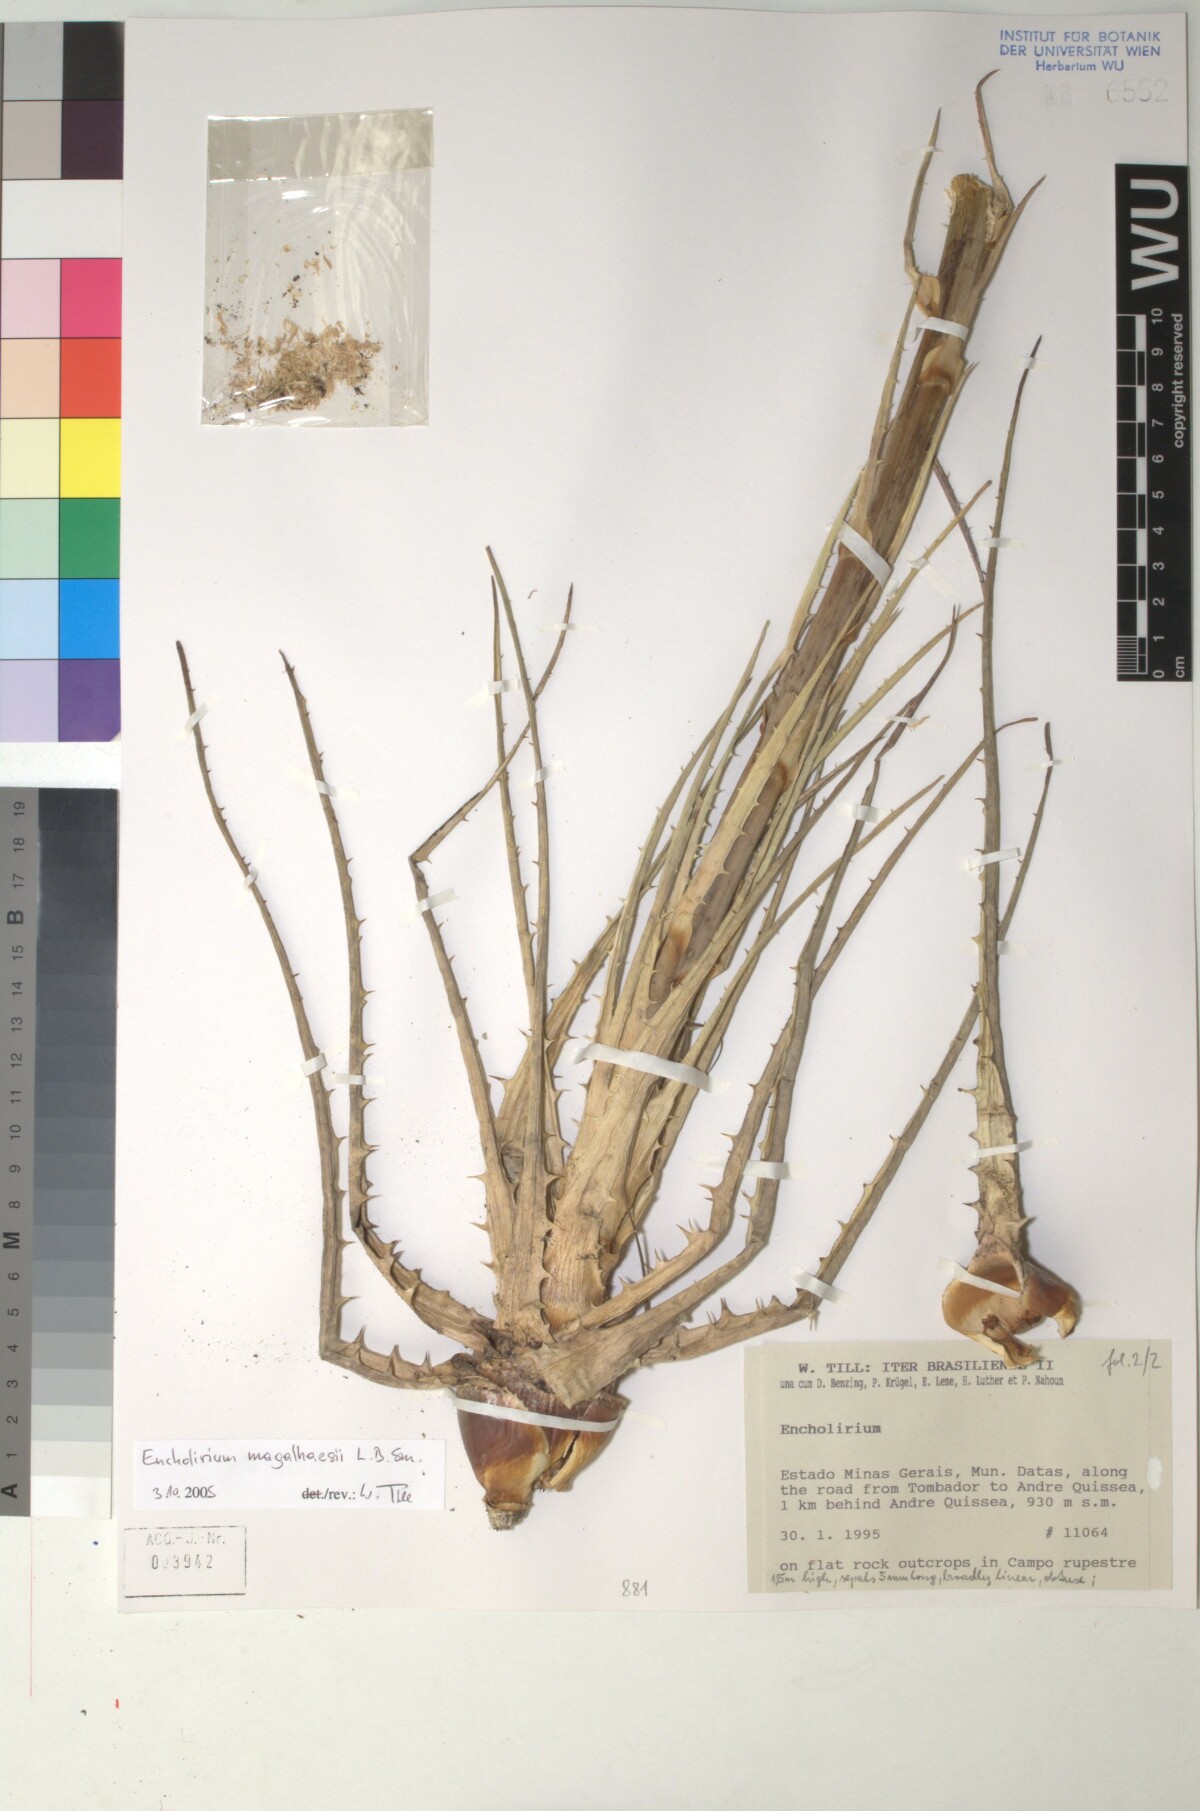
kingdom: Plantae
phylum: Tracheophyta
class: Liliopsida
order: Poales
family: Bromeliaceae
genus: Encholirium
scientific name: Encholirium
